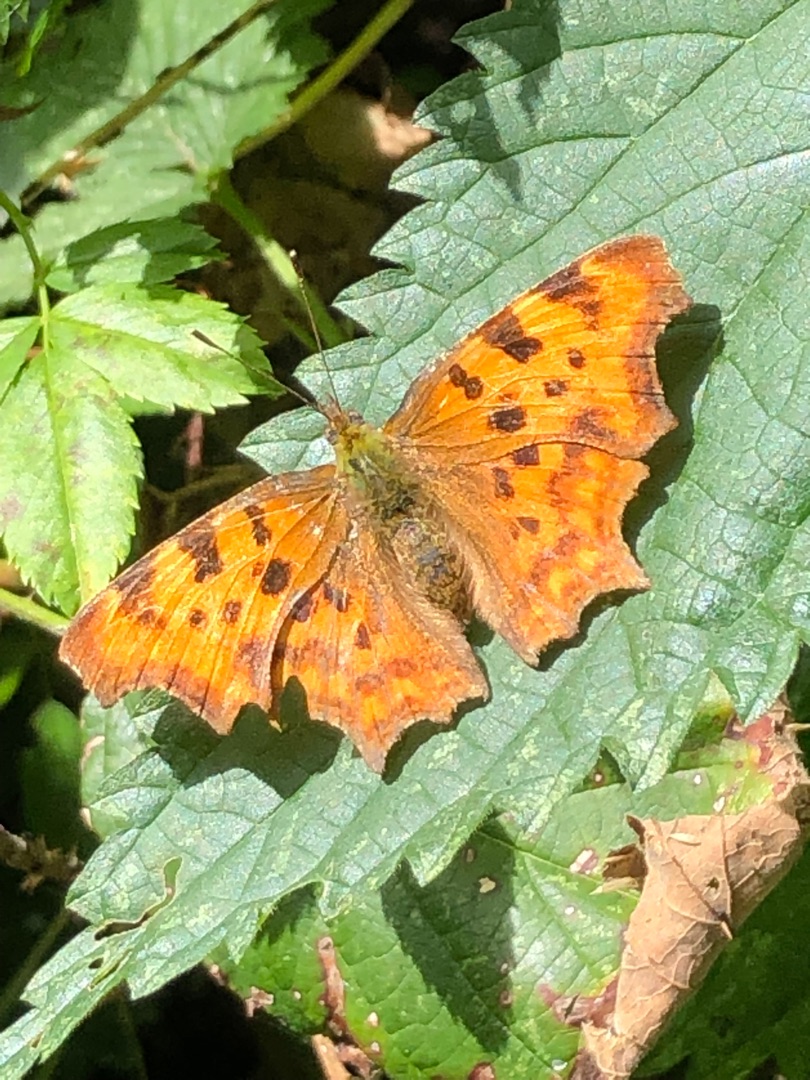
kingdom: Animalia
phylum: Arthropoda
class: Insecta
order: Lepidoptera
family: Nymphalidae
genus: Polygonia
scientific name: Polygonia c-album
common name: Det hvide C
